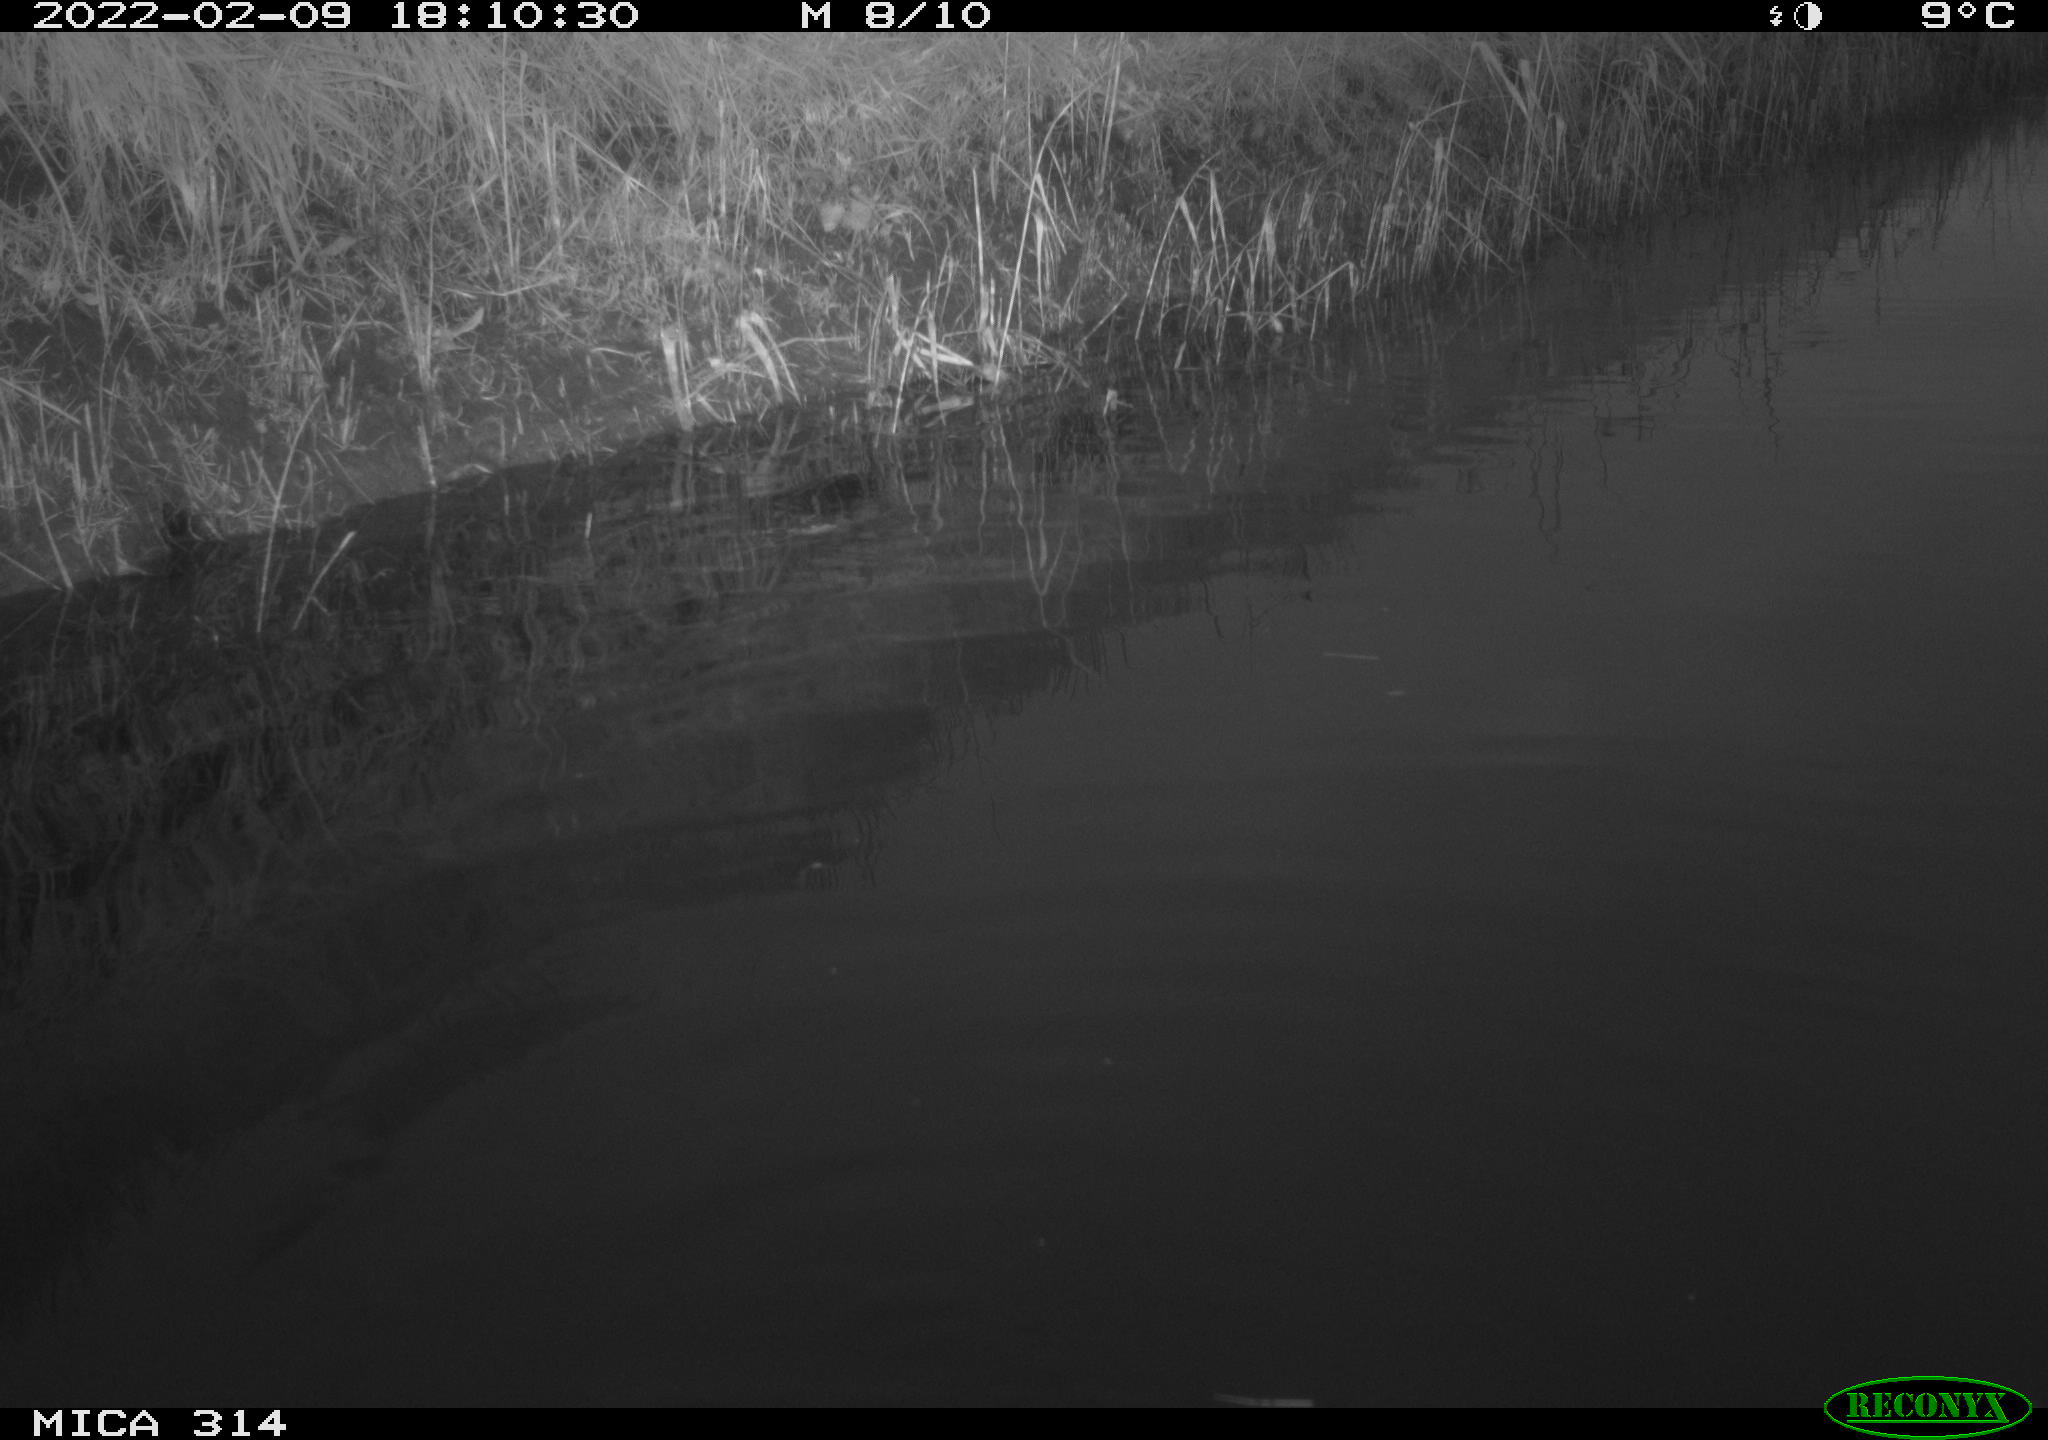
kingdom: Animalia
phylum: Chordata
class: Aves
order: Gruiformes
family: Rallidae
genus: Gallinula
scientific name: Gallinula chloropus
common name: Common moorhen
